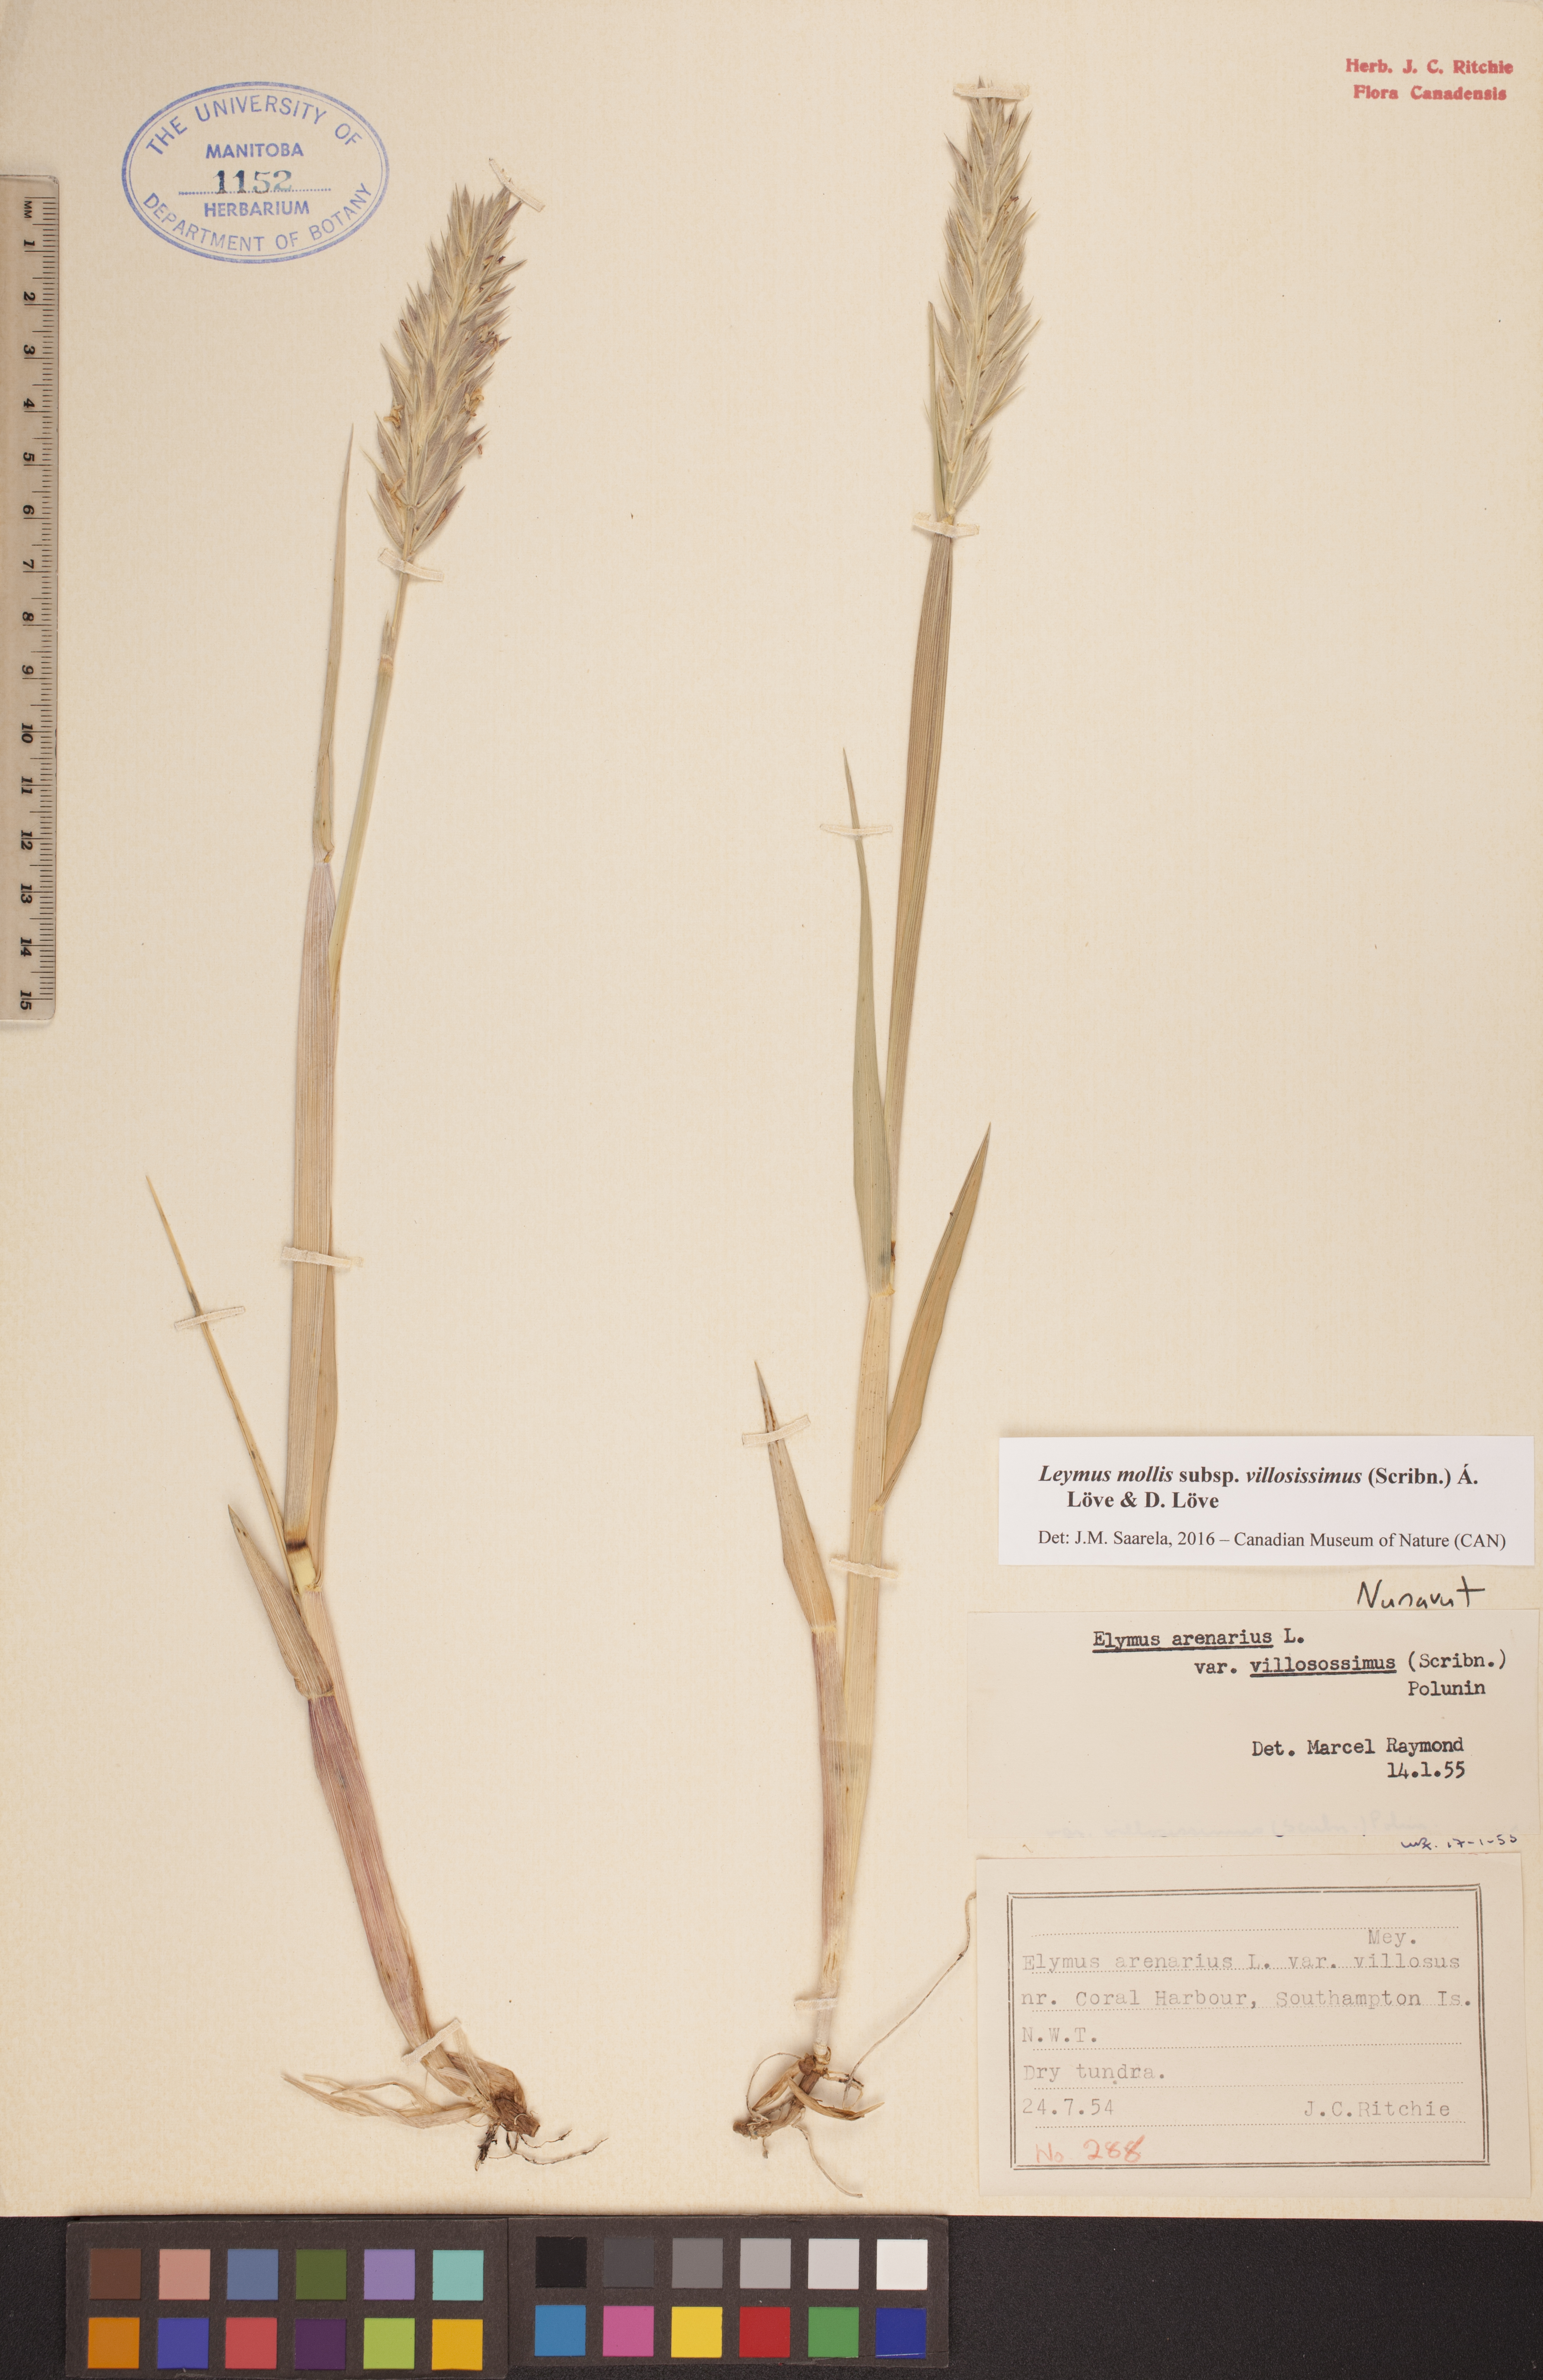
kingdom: Plantae
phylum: Tracheophyta
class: Liliopsida
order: Poales
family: Poaceae
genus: Leymus
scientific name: Leymus villosissimus
